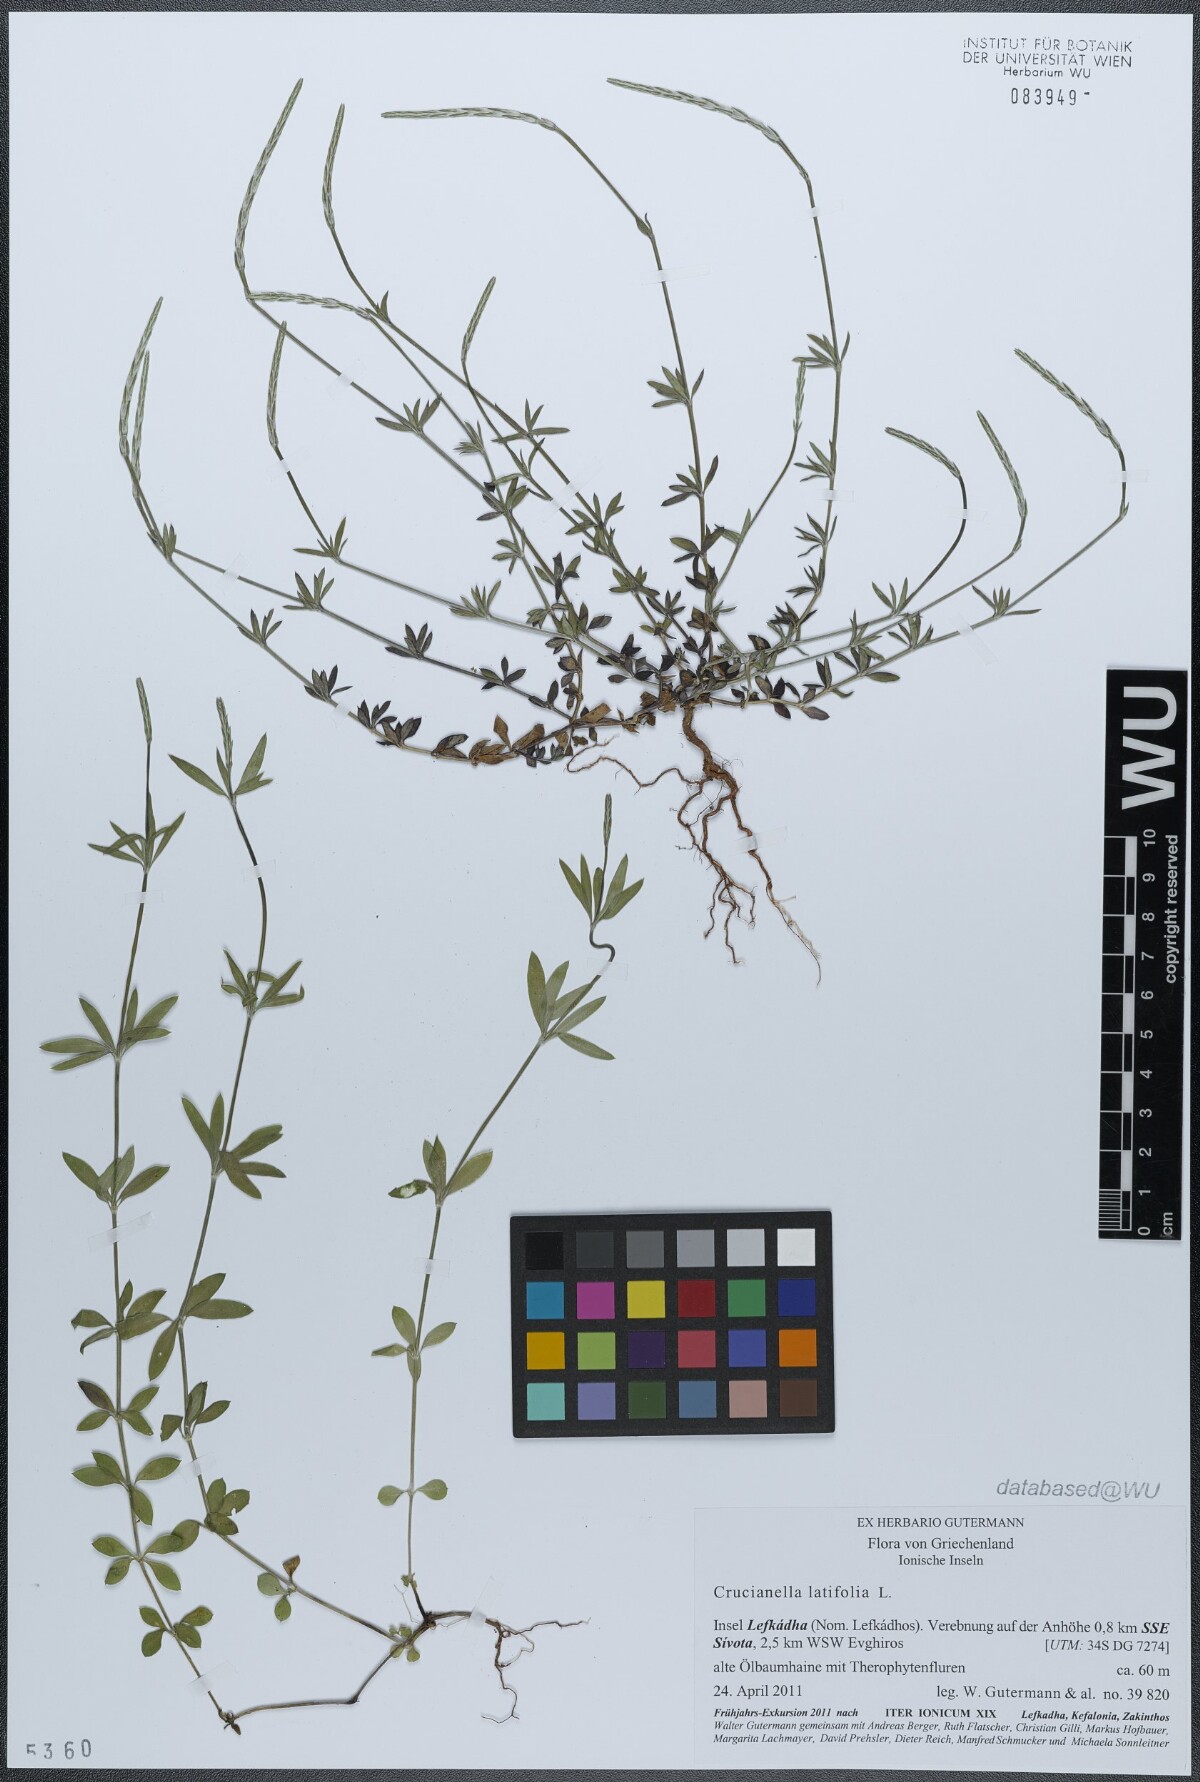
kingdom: Plantae
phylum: Tracheophyta
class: Magnoliopsida
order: Gentianales
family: Rubiaceae
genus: Crucianella
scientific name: Crucianella latifolia
